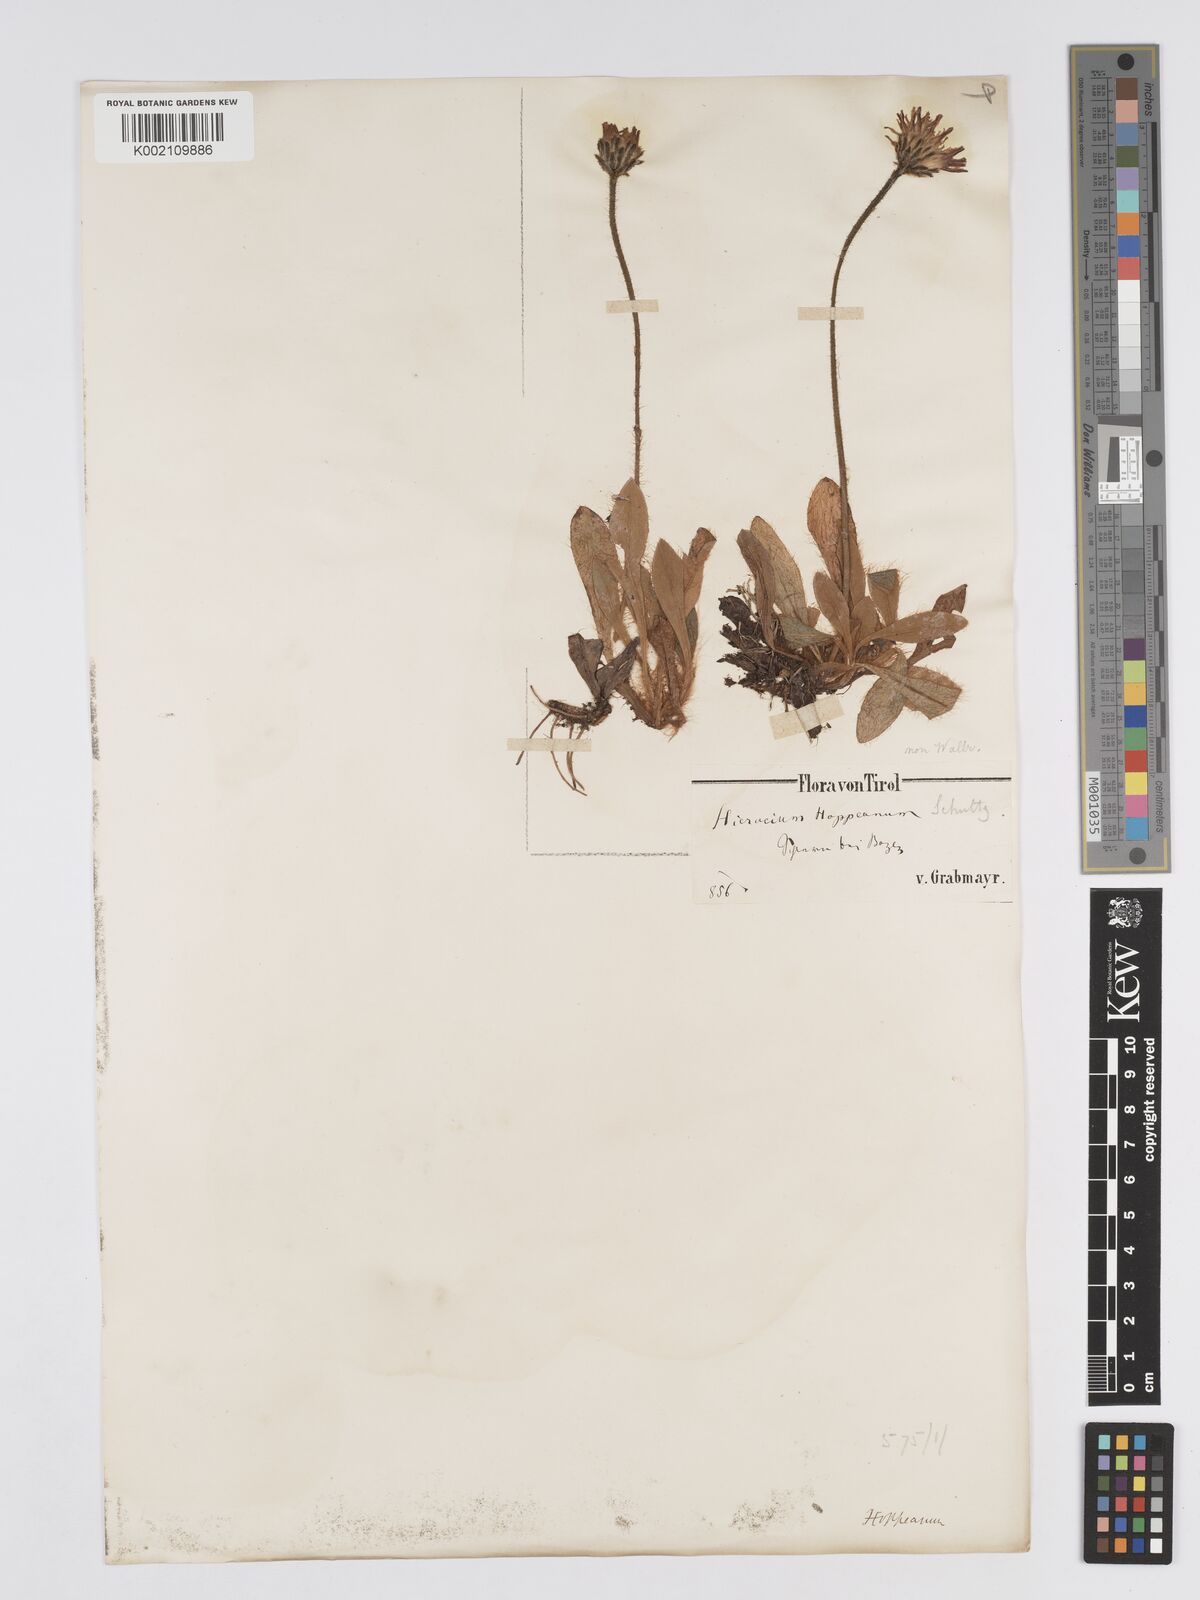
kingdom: Plantae
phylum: Tracheophyta
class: Magnoliopsida
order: Asterales
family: Asteraceae
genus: Pilosella
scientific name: Pilosella hoppeana
